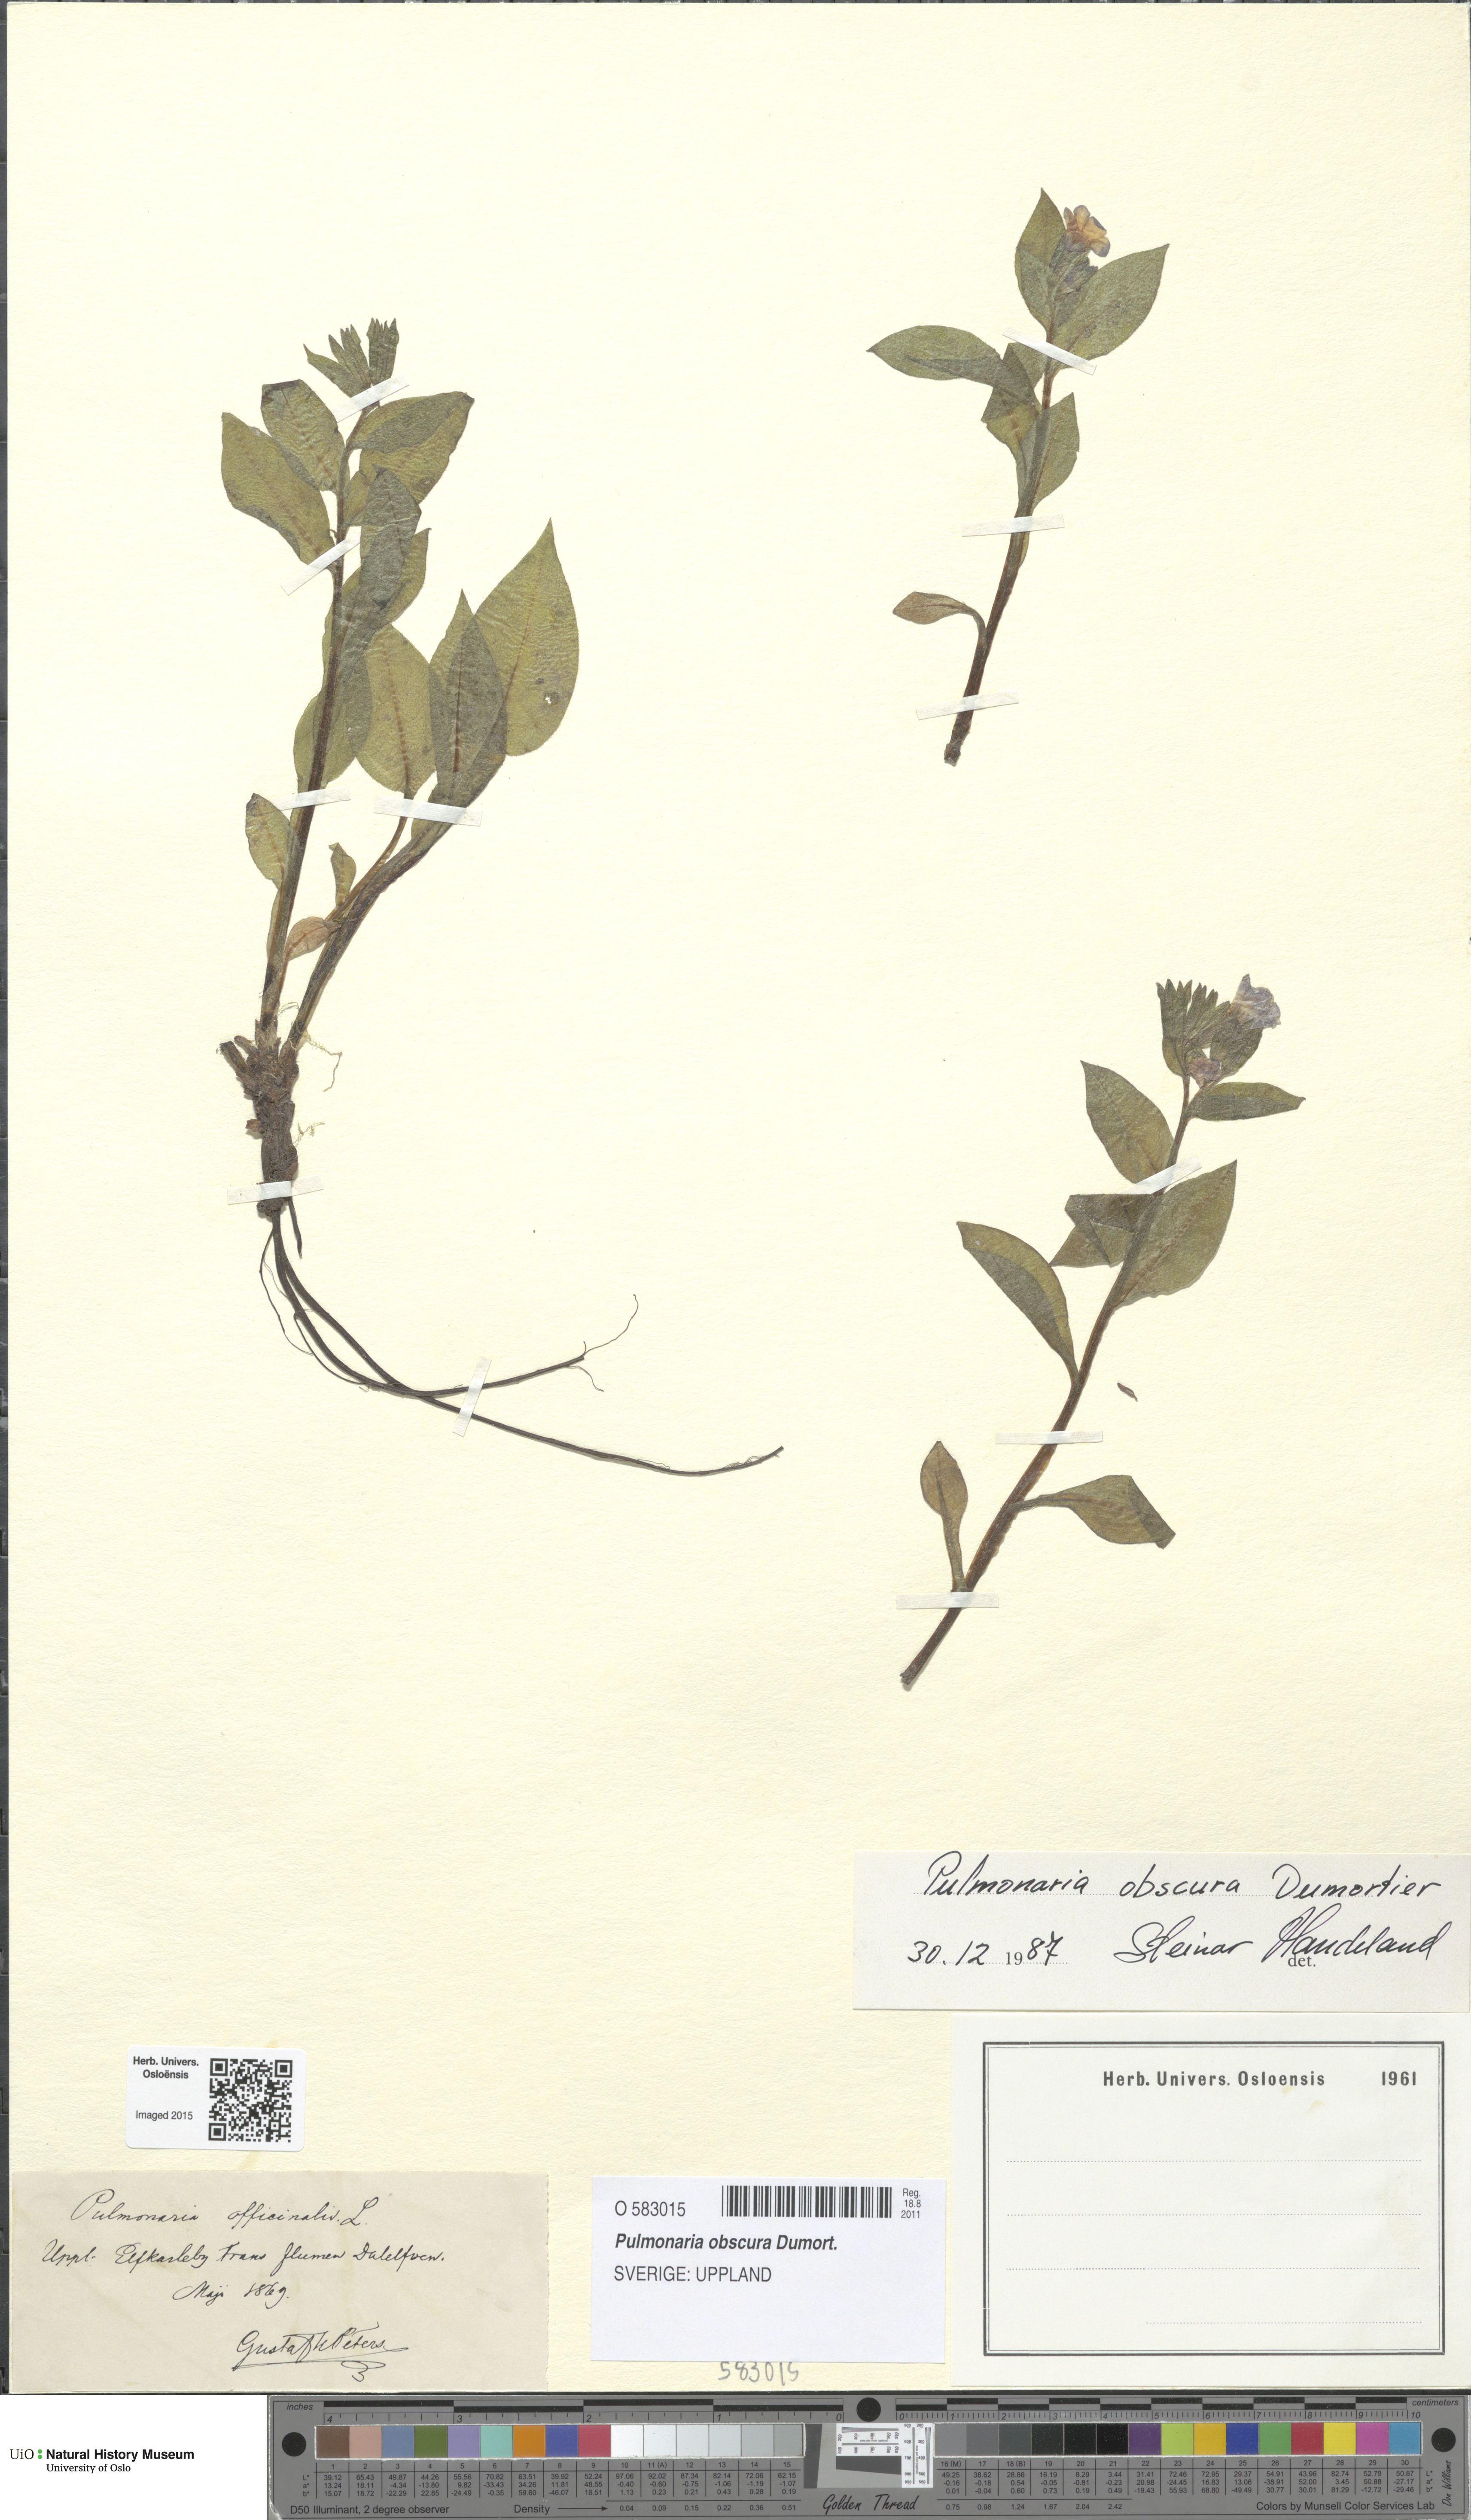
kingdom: Plantae
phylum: Tracheophyta
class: Magnoliopsida
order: Boraginales
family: Boraginaceae
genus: Pulmonaria
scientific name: Pulmonaria obscura
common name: Suffolk lungwort
